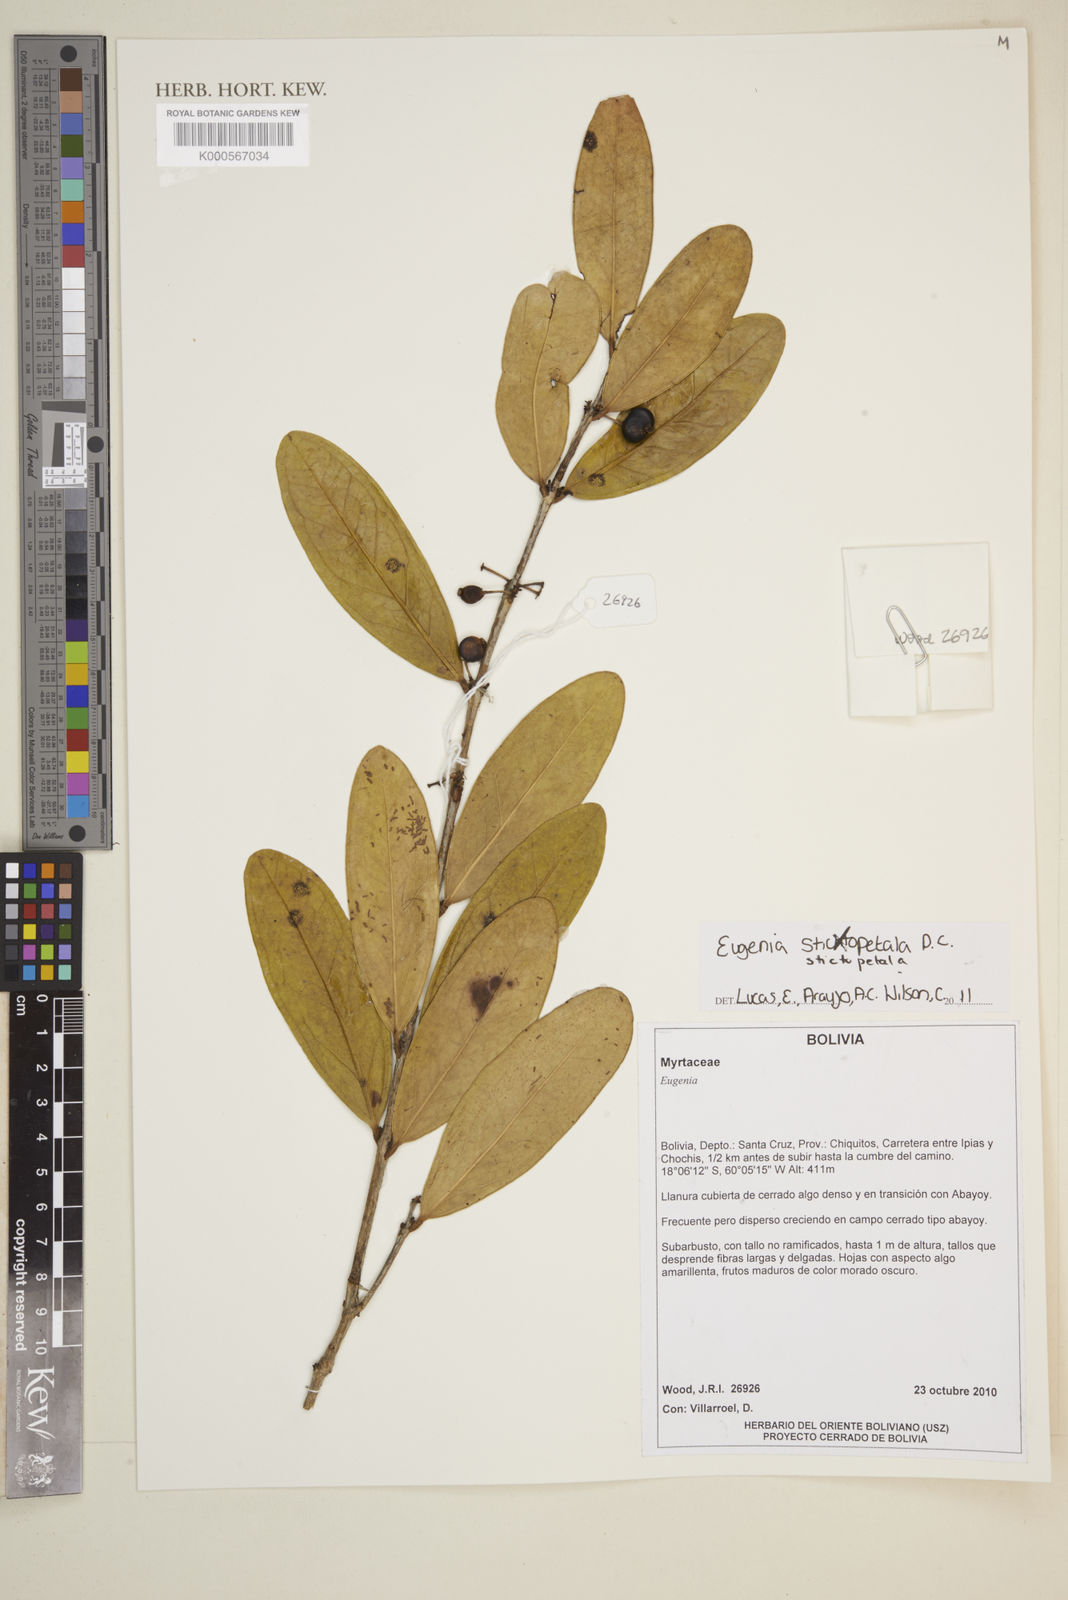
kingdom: Plantae
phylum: Tracheophyta
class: Magnoliopsida
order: Myrtales
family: Myrtaceae
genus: Eugenia
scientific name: Eugenia
